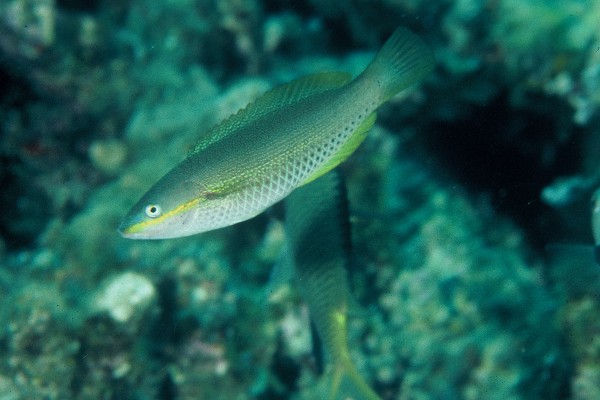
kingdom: Animalia
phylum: Chordata
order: Perciformes
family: Labridae
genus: Stethojulis
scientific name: Stethojulis maculata
